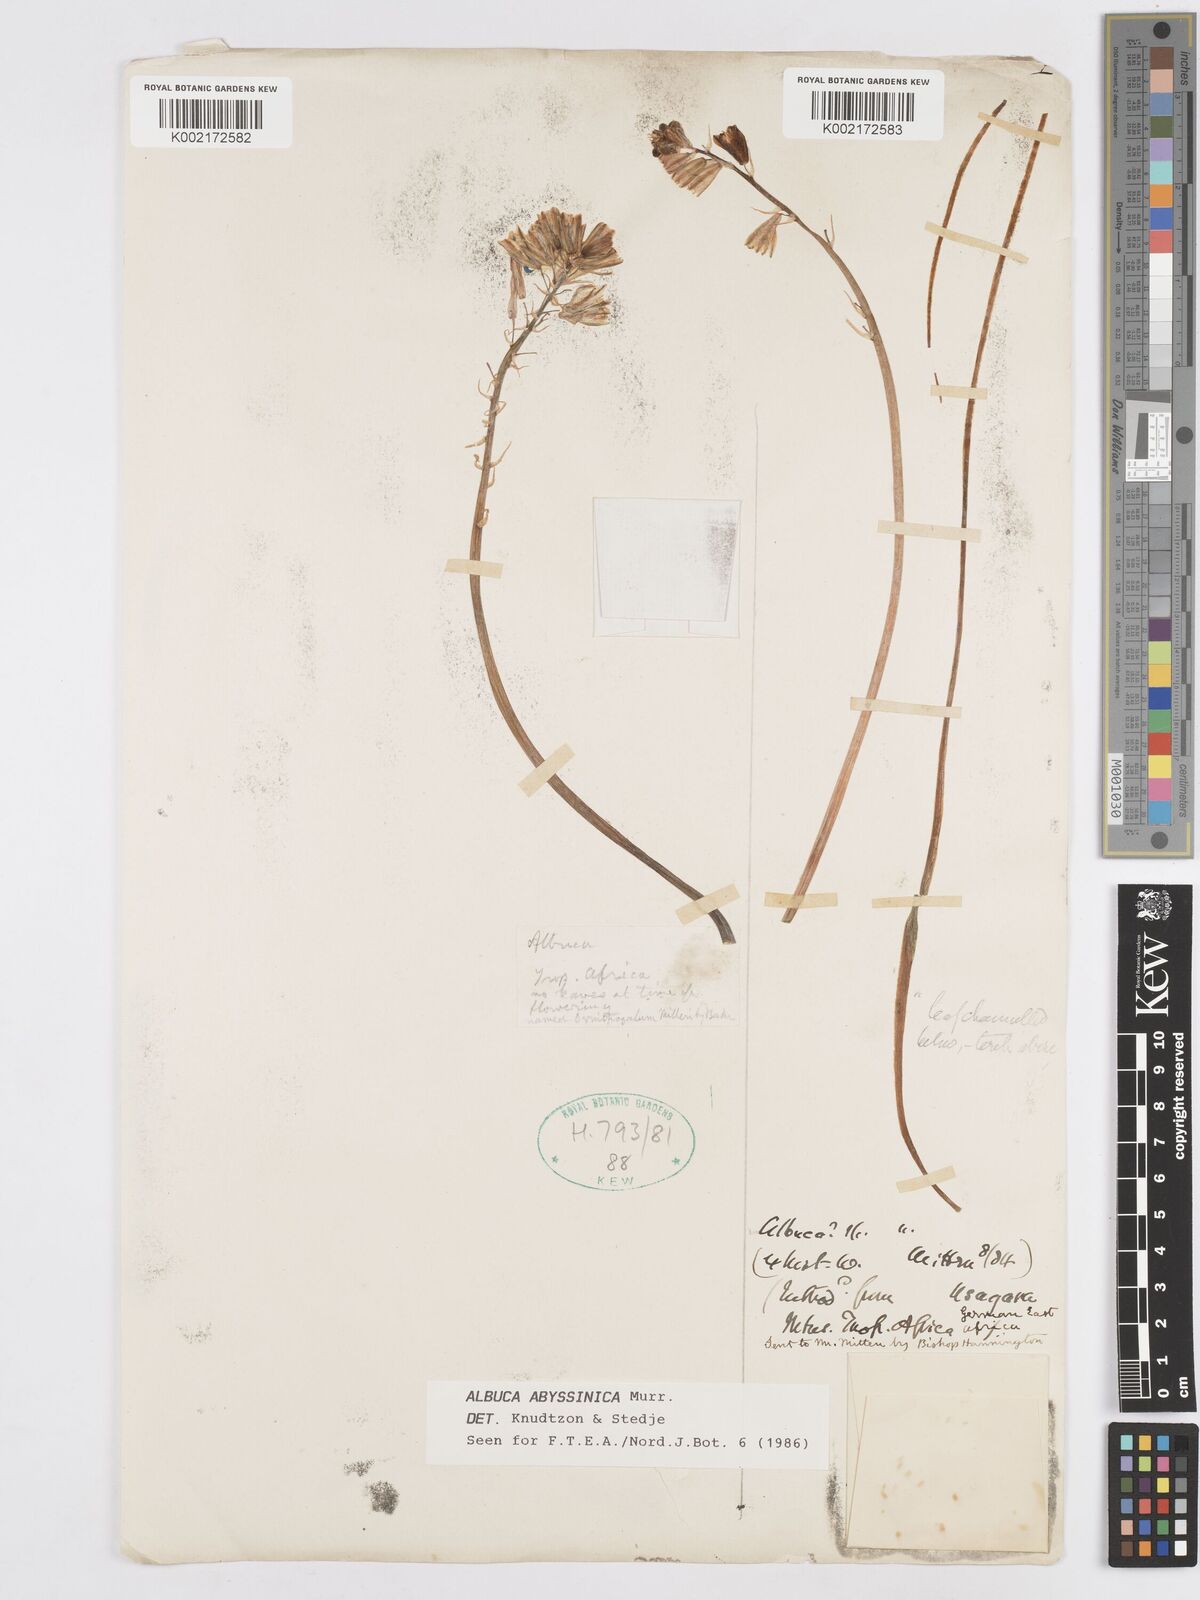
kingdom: Plantae
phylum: Tracheophyta
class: Liliopsida
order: Asparagales
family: Asparagaceae
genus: Albuca
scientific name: Albuca abyssinica
